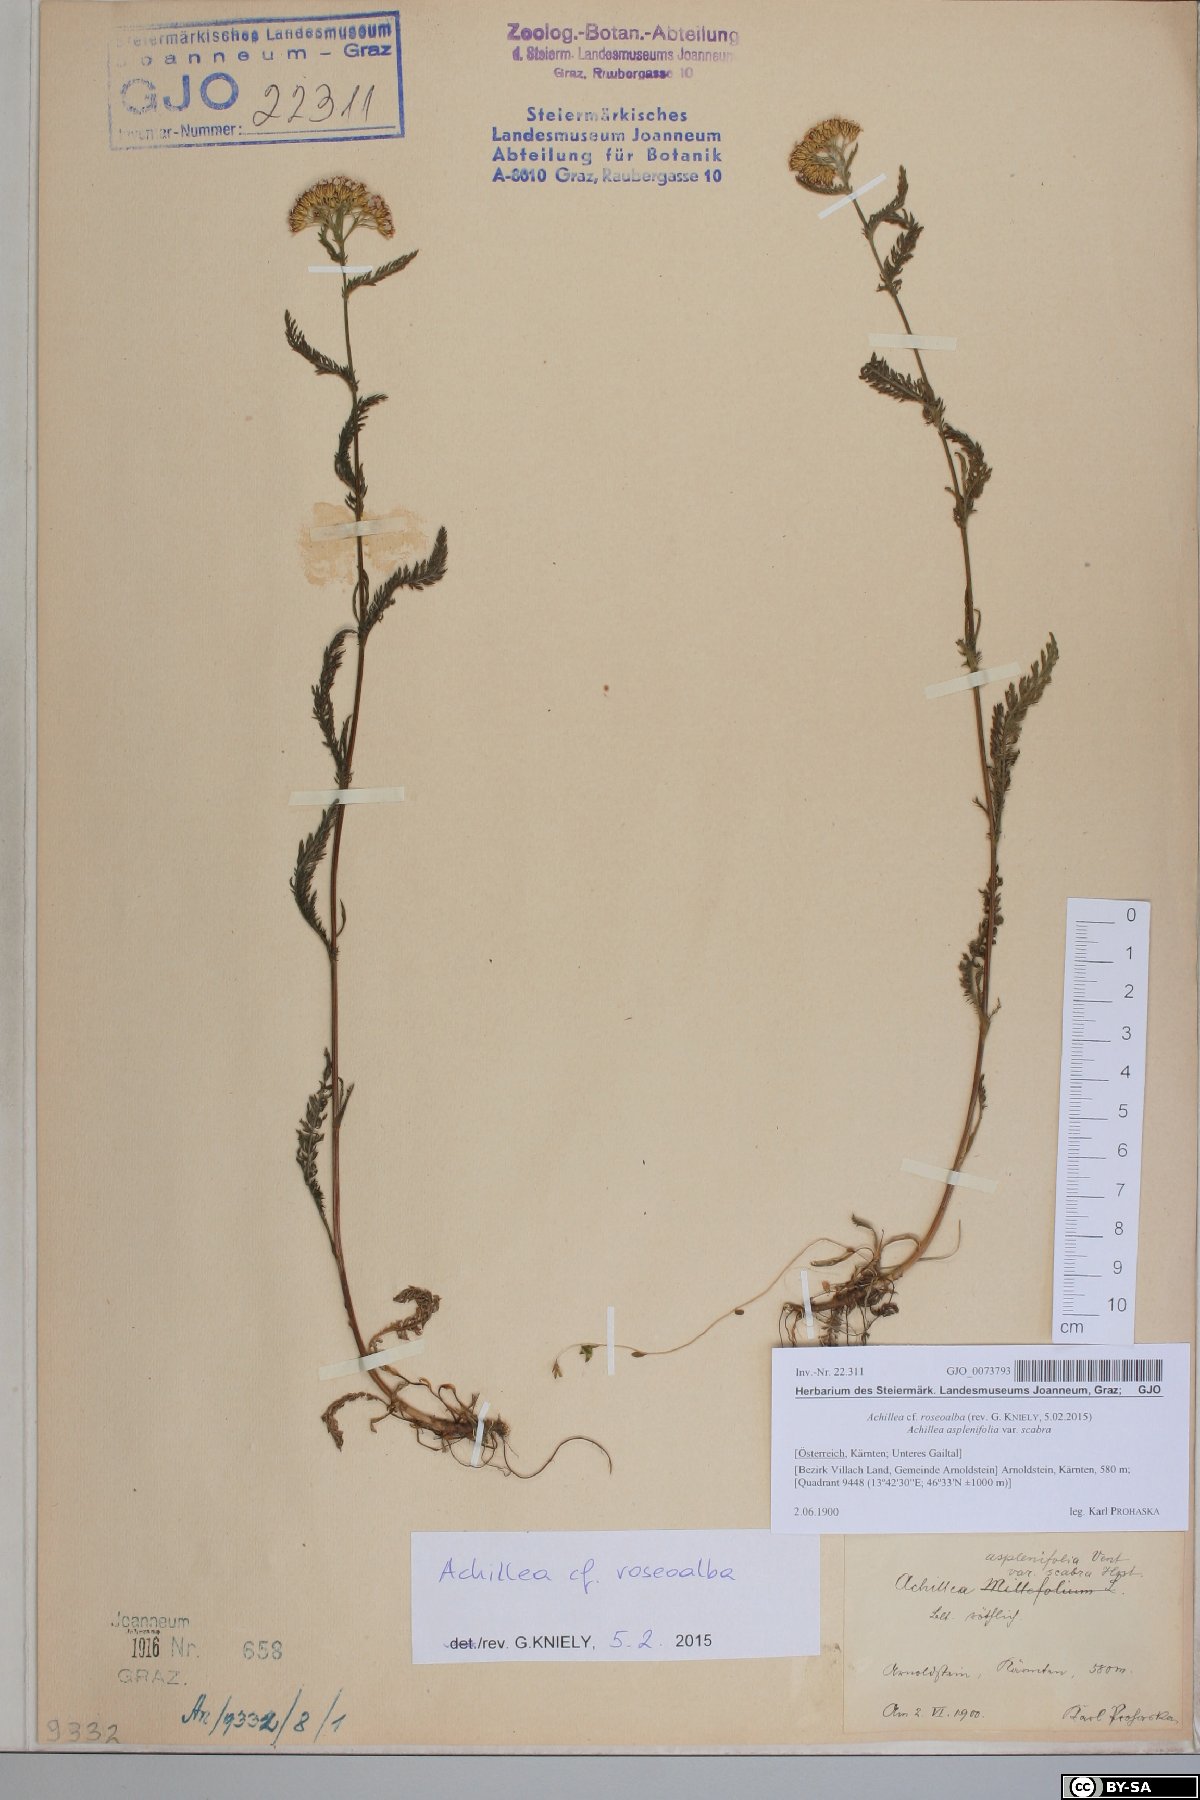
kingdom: Plantae
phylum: Tracheophyta
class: Magnoliopsida
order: Asterales
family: Asteraceae
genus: Achillea
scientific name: Achillea roseoalba
